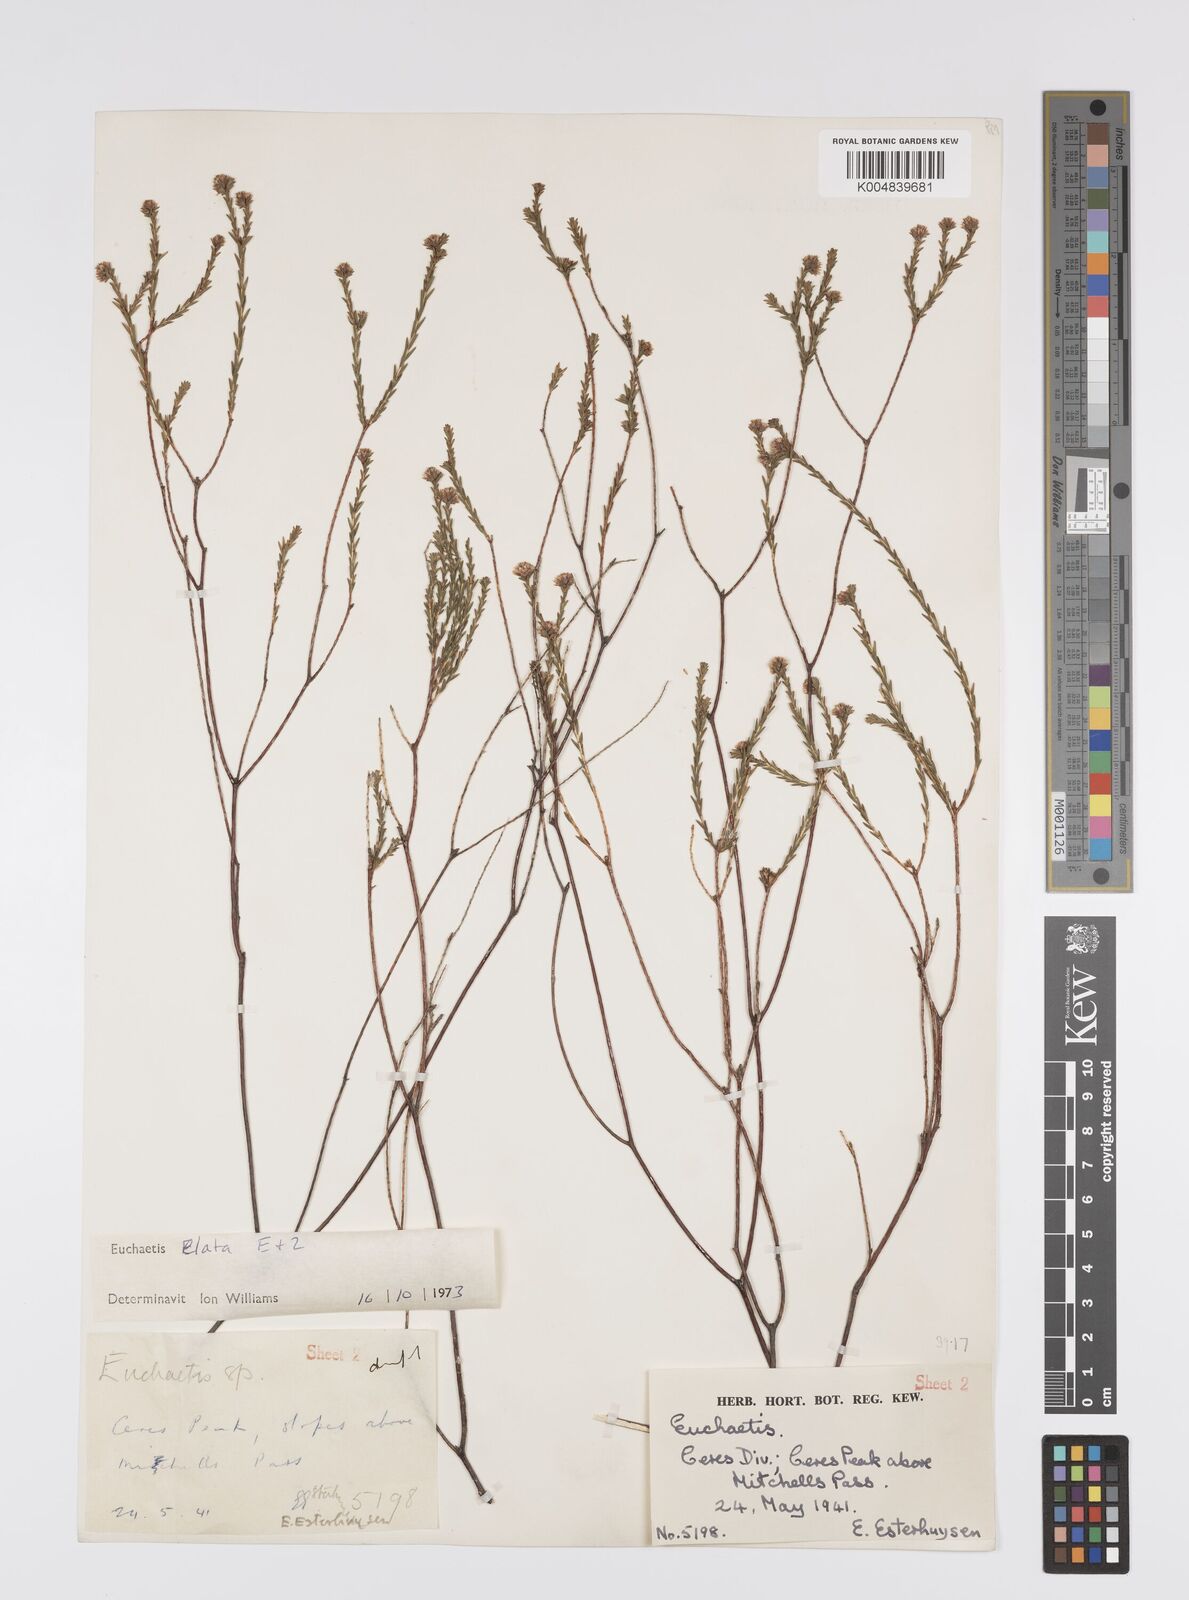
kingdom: Plantae
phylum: Tracheophyta
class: Magnoliopsida
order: Sapindales
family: Rutaceae
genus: Euchaetis
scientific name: Euchaetis elata
